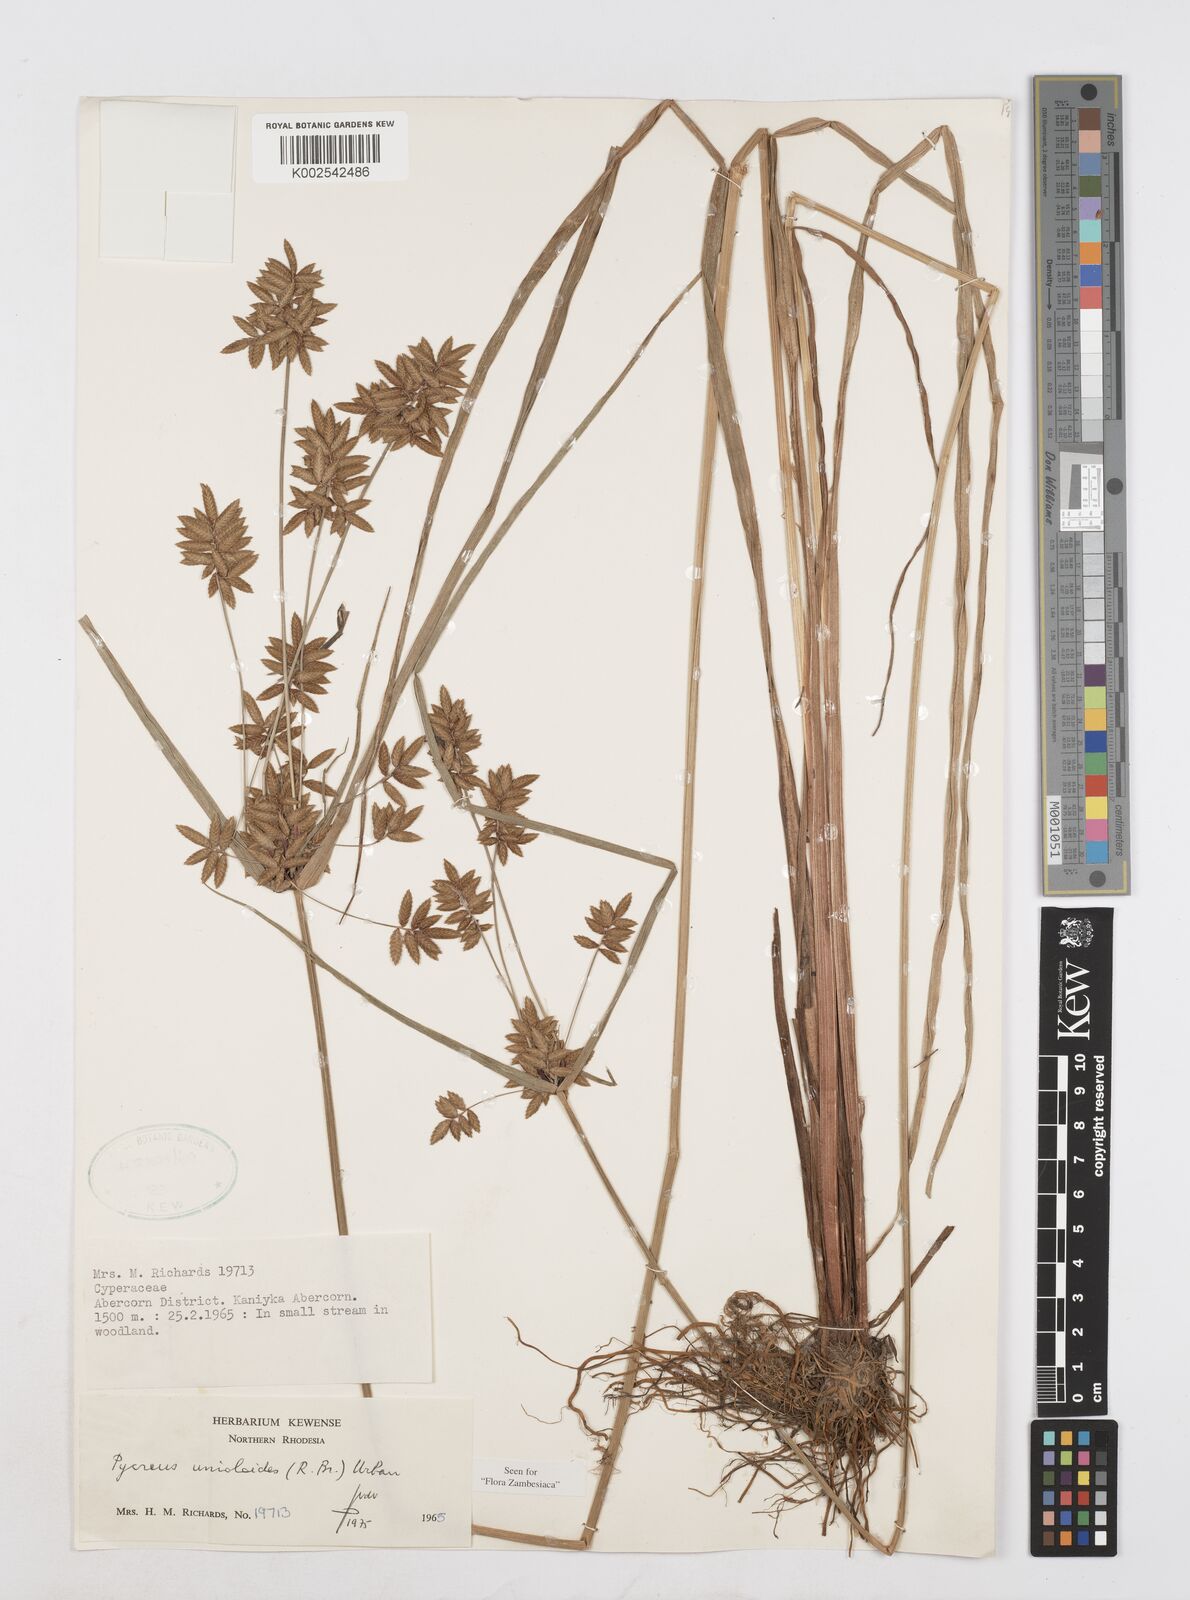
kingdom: Plantae
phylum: Tracheophyta
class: Liliopsida
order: Poales
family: Cyperaceae
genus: Cyperus
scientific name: Cyperus unioloides
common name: Uniola flatsedge
